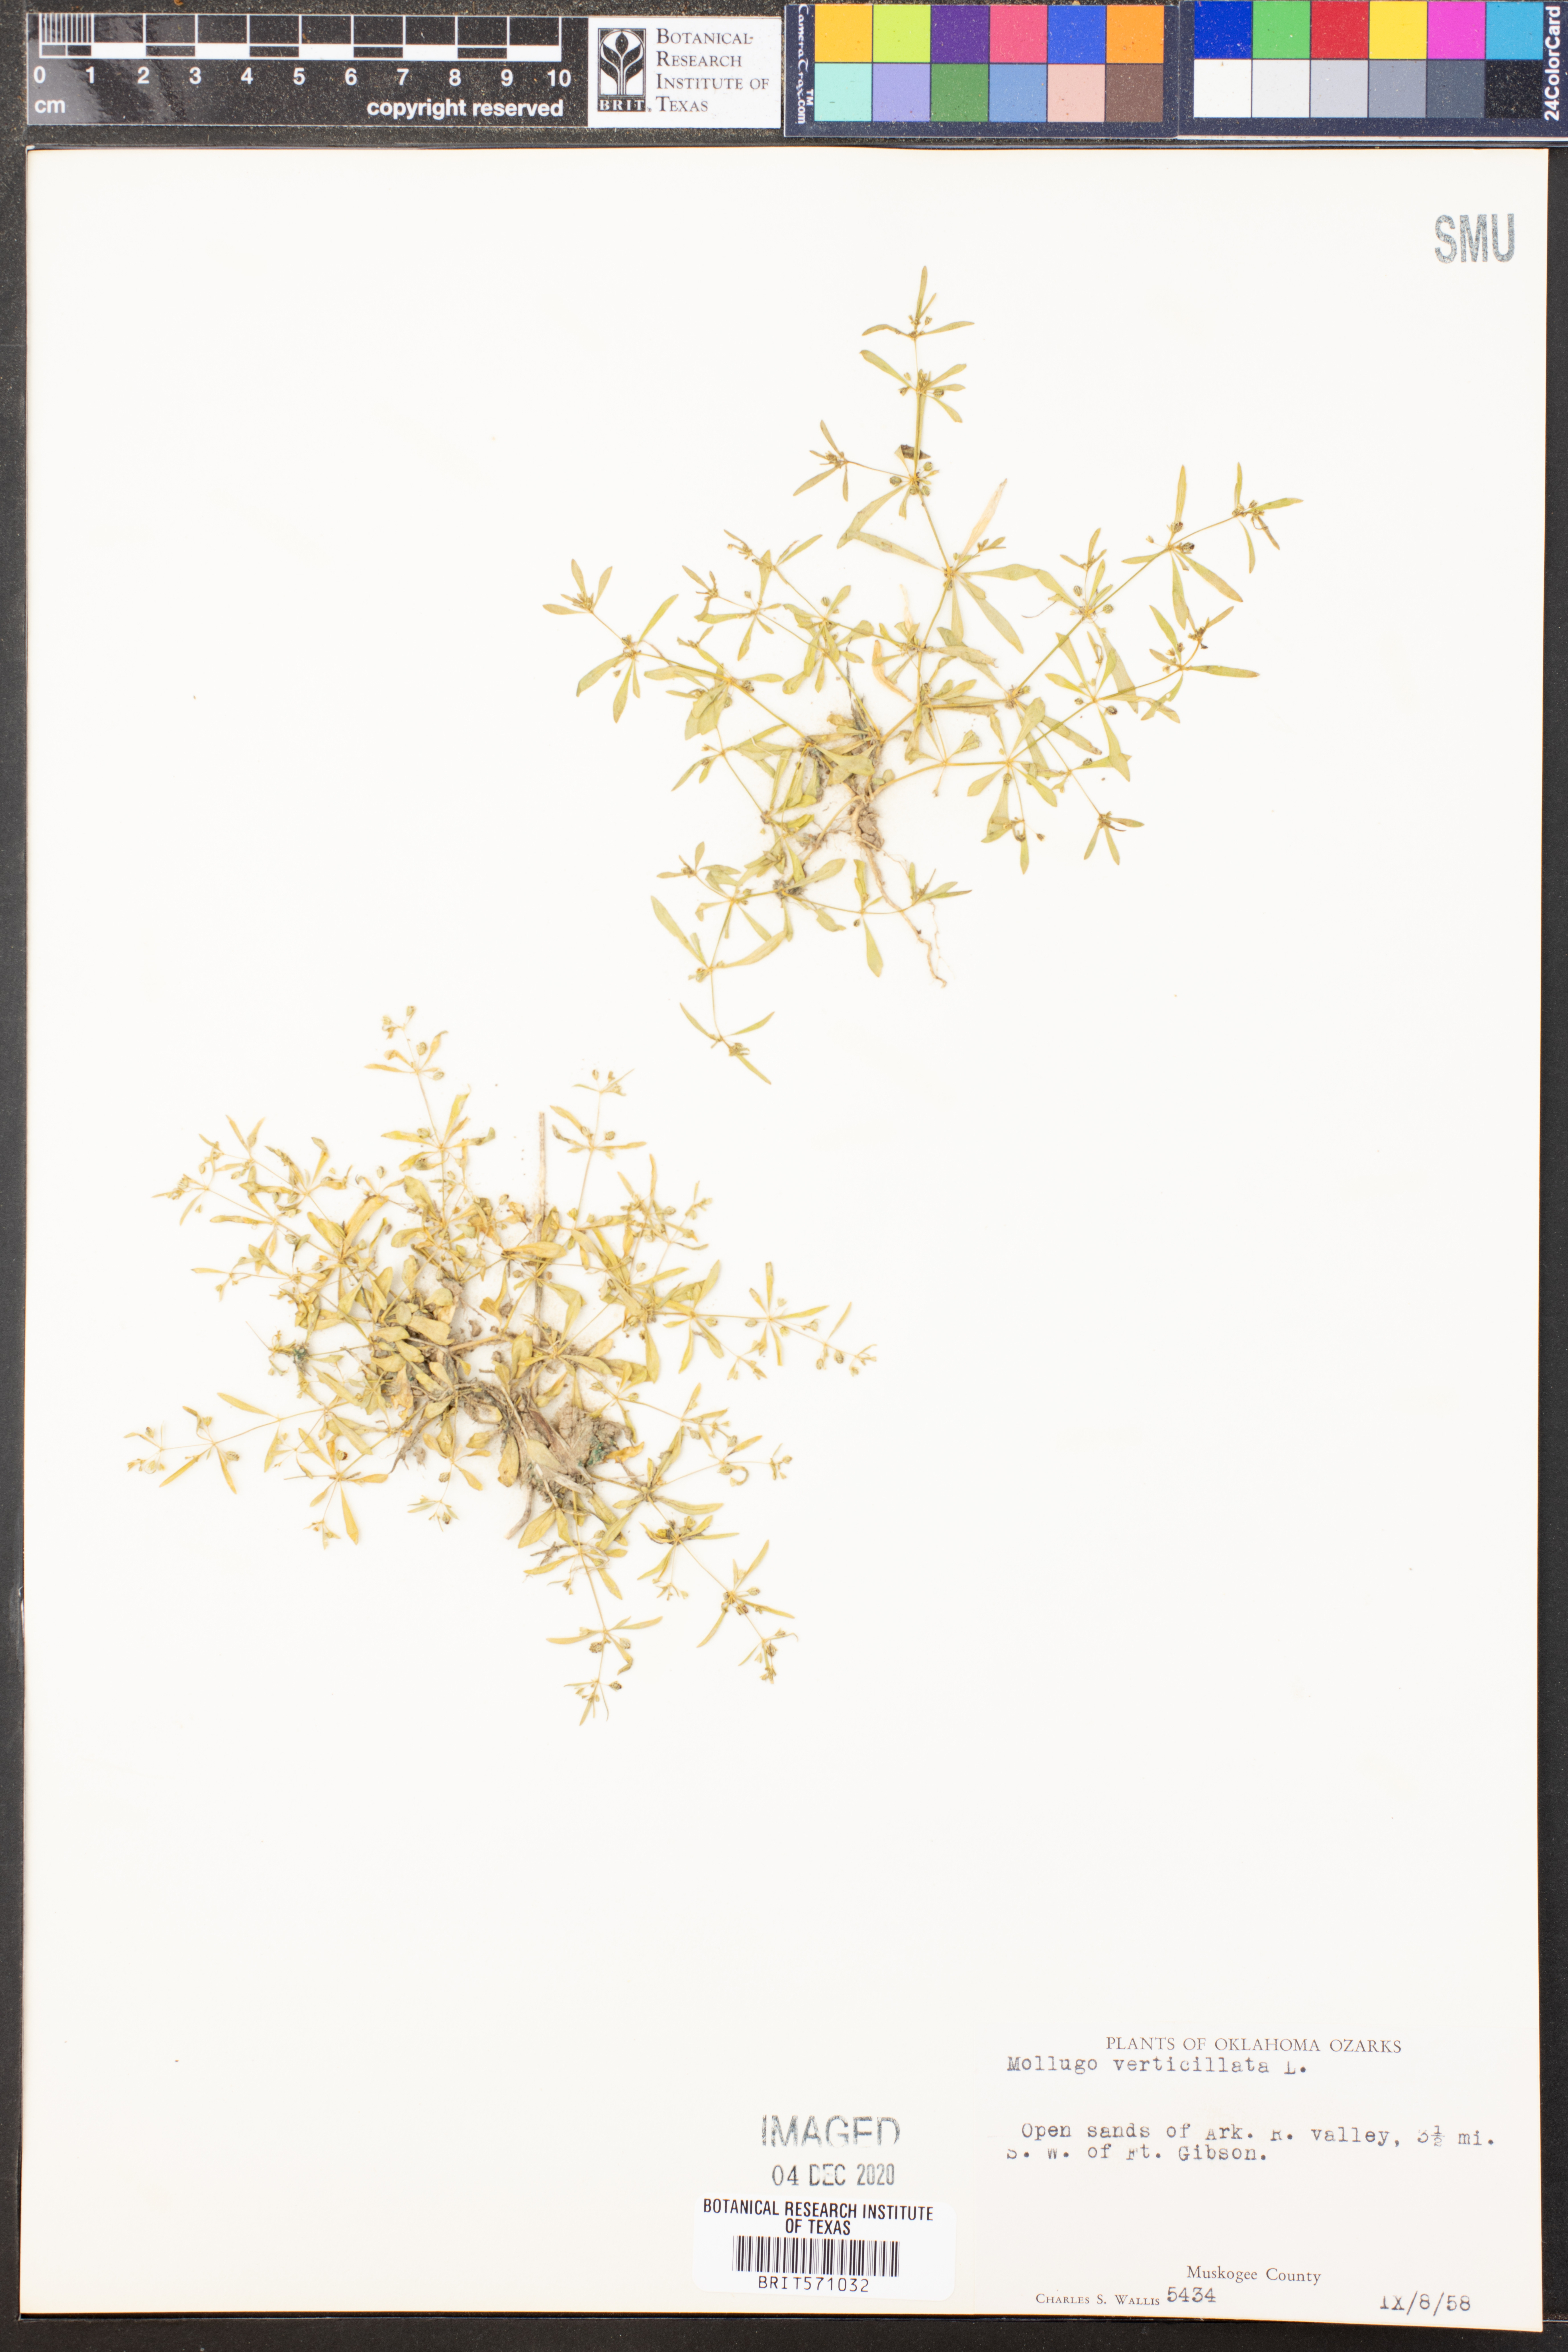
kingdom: Plantae
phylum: Tracheophyta
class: Magnoliopsida
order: Caryophyllales
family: Molluginaceae
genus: Mollugo
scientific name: Mollugo verticillata
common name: Green carpetweed
